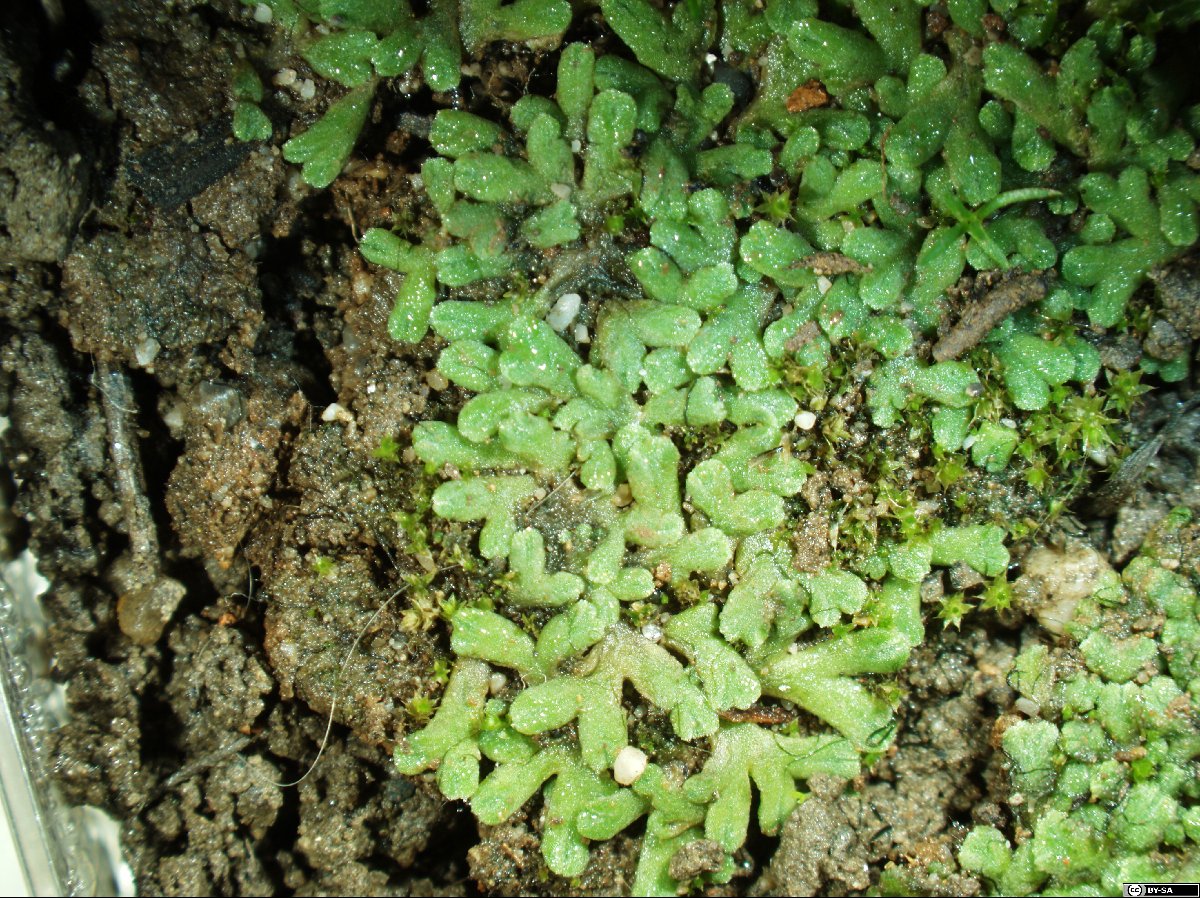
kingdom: Plantae
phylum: Marchantiophyta
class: Marchantiopsida
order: Marchantiales
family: Ricciaceae
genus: Riccia
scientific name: Riccia warnstorfii
